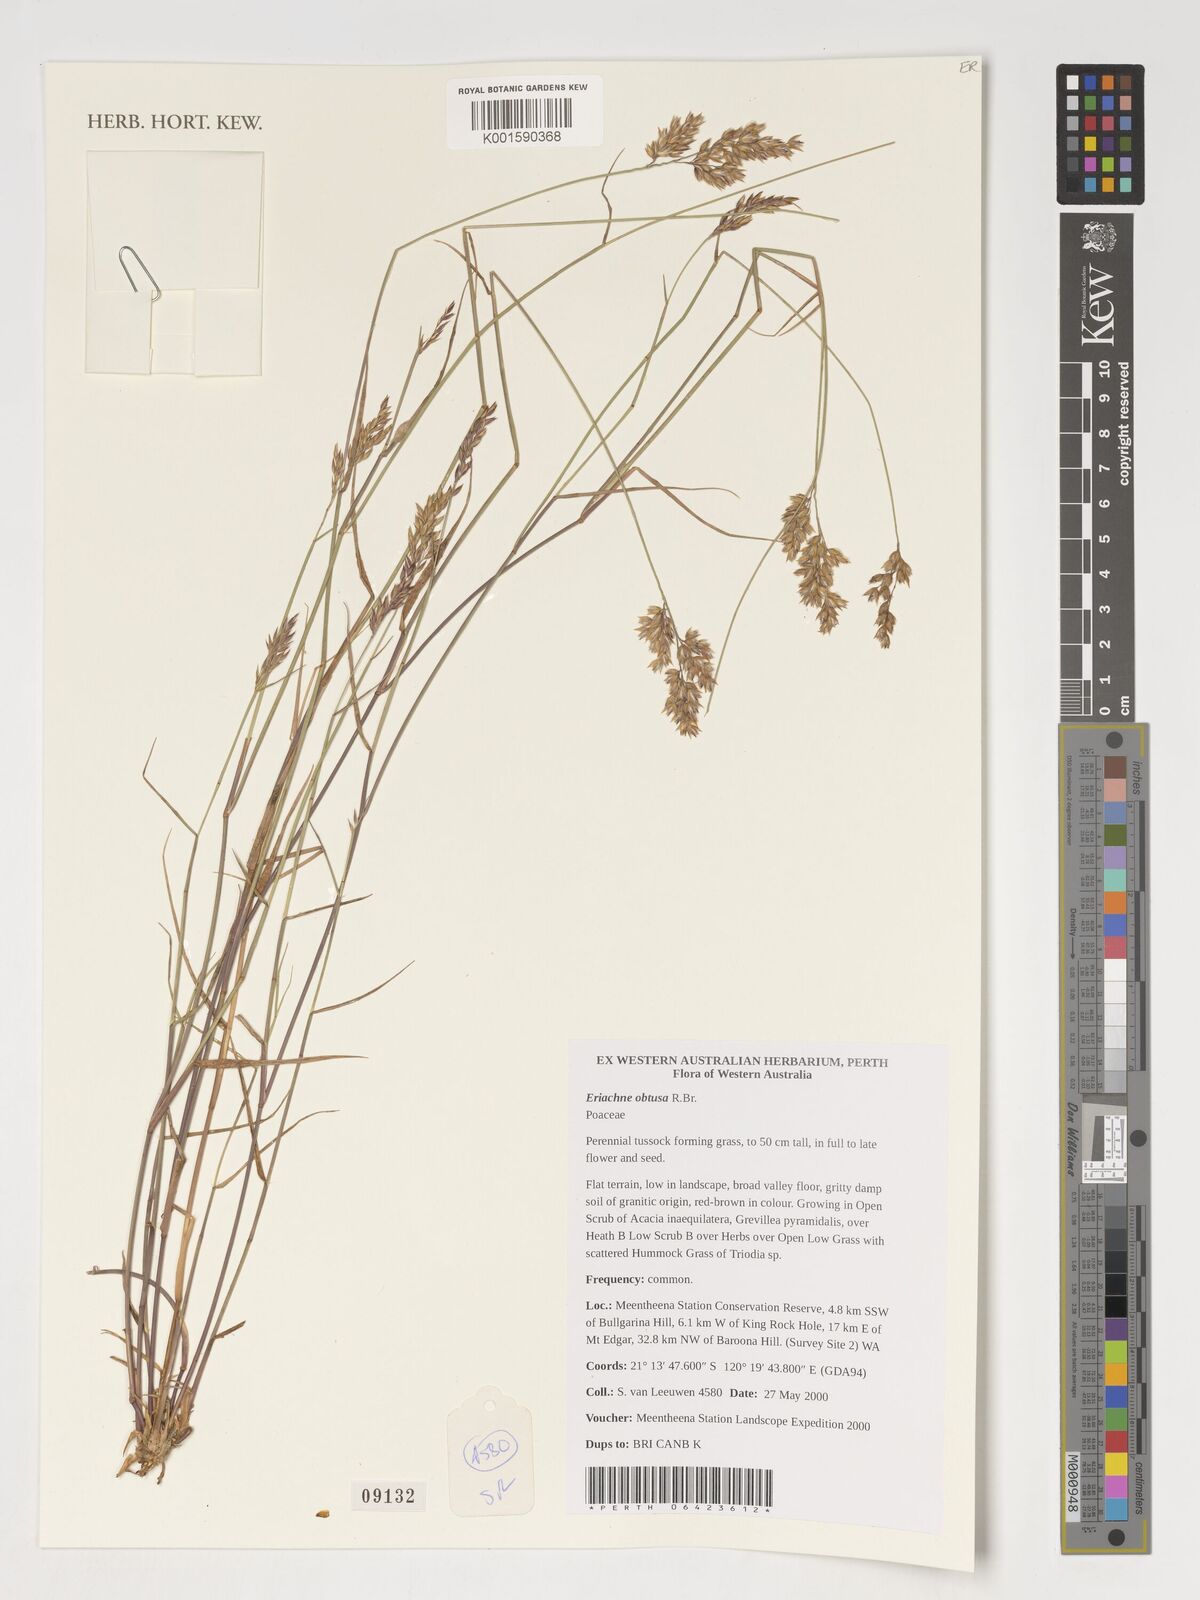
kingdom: Plantae
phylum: Tracheophyta
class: Liliopsida
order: Poales
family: Poaceae
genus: Eriachne
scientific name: Eriachne obtusa
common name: Northern wanderrie grass
